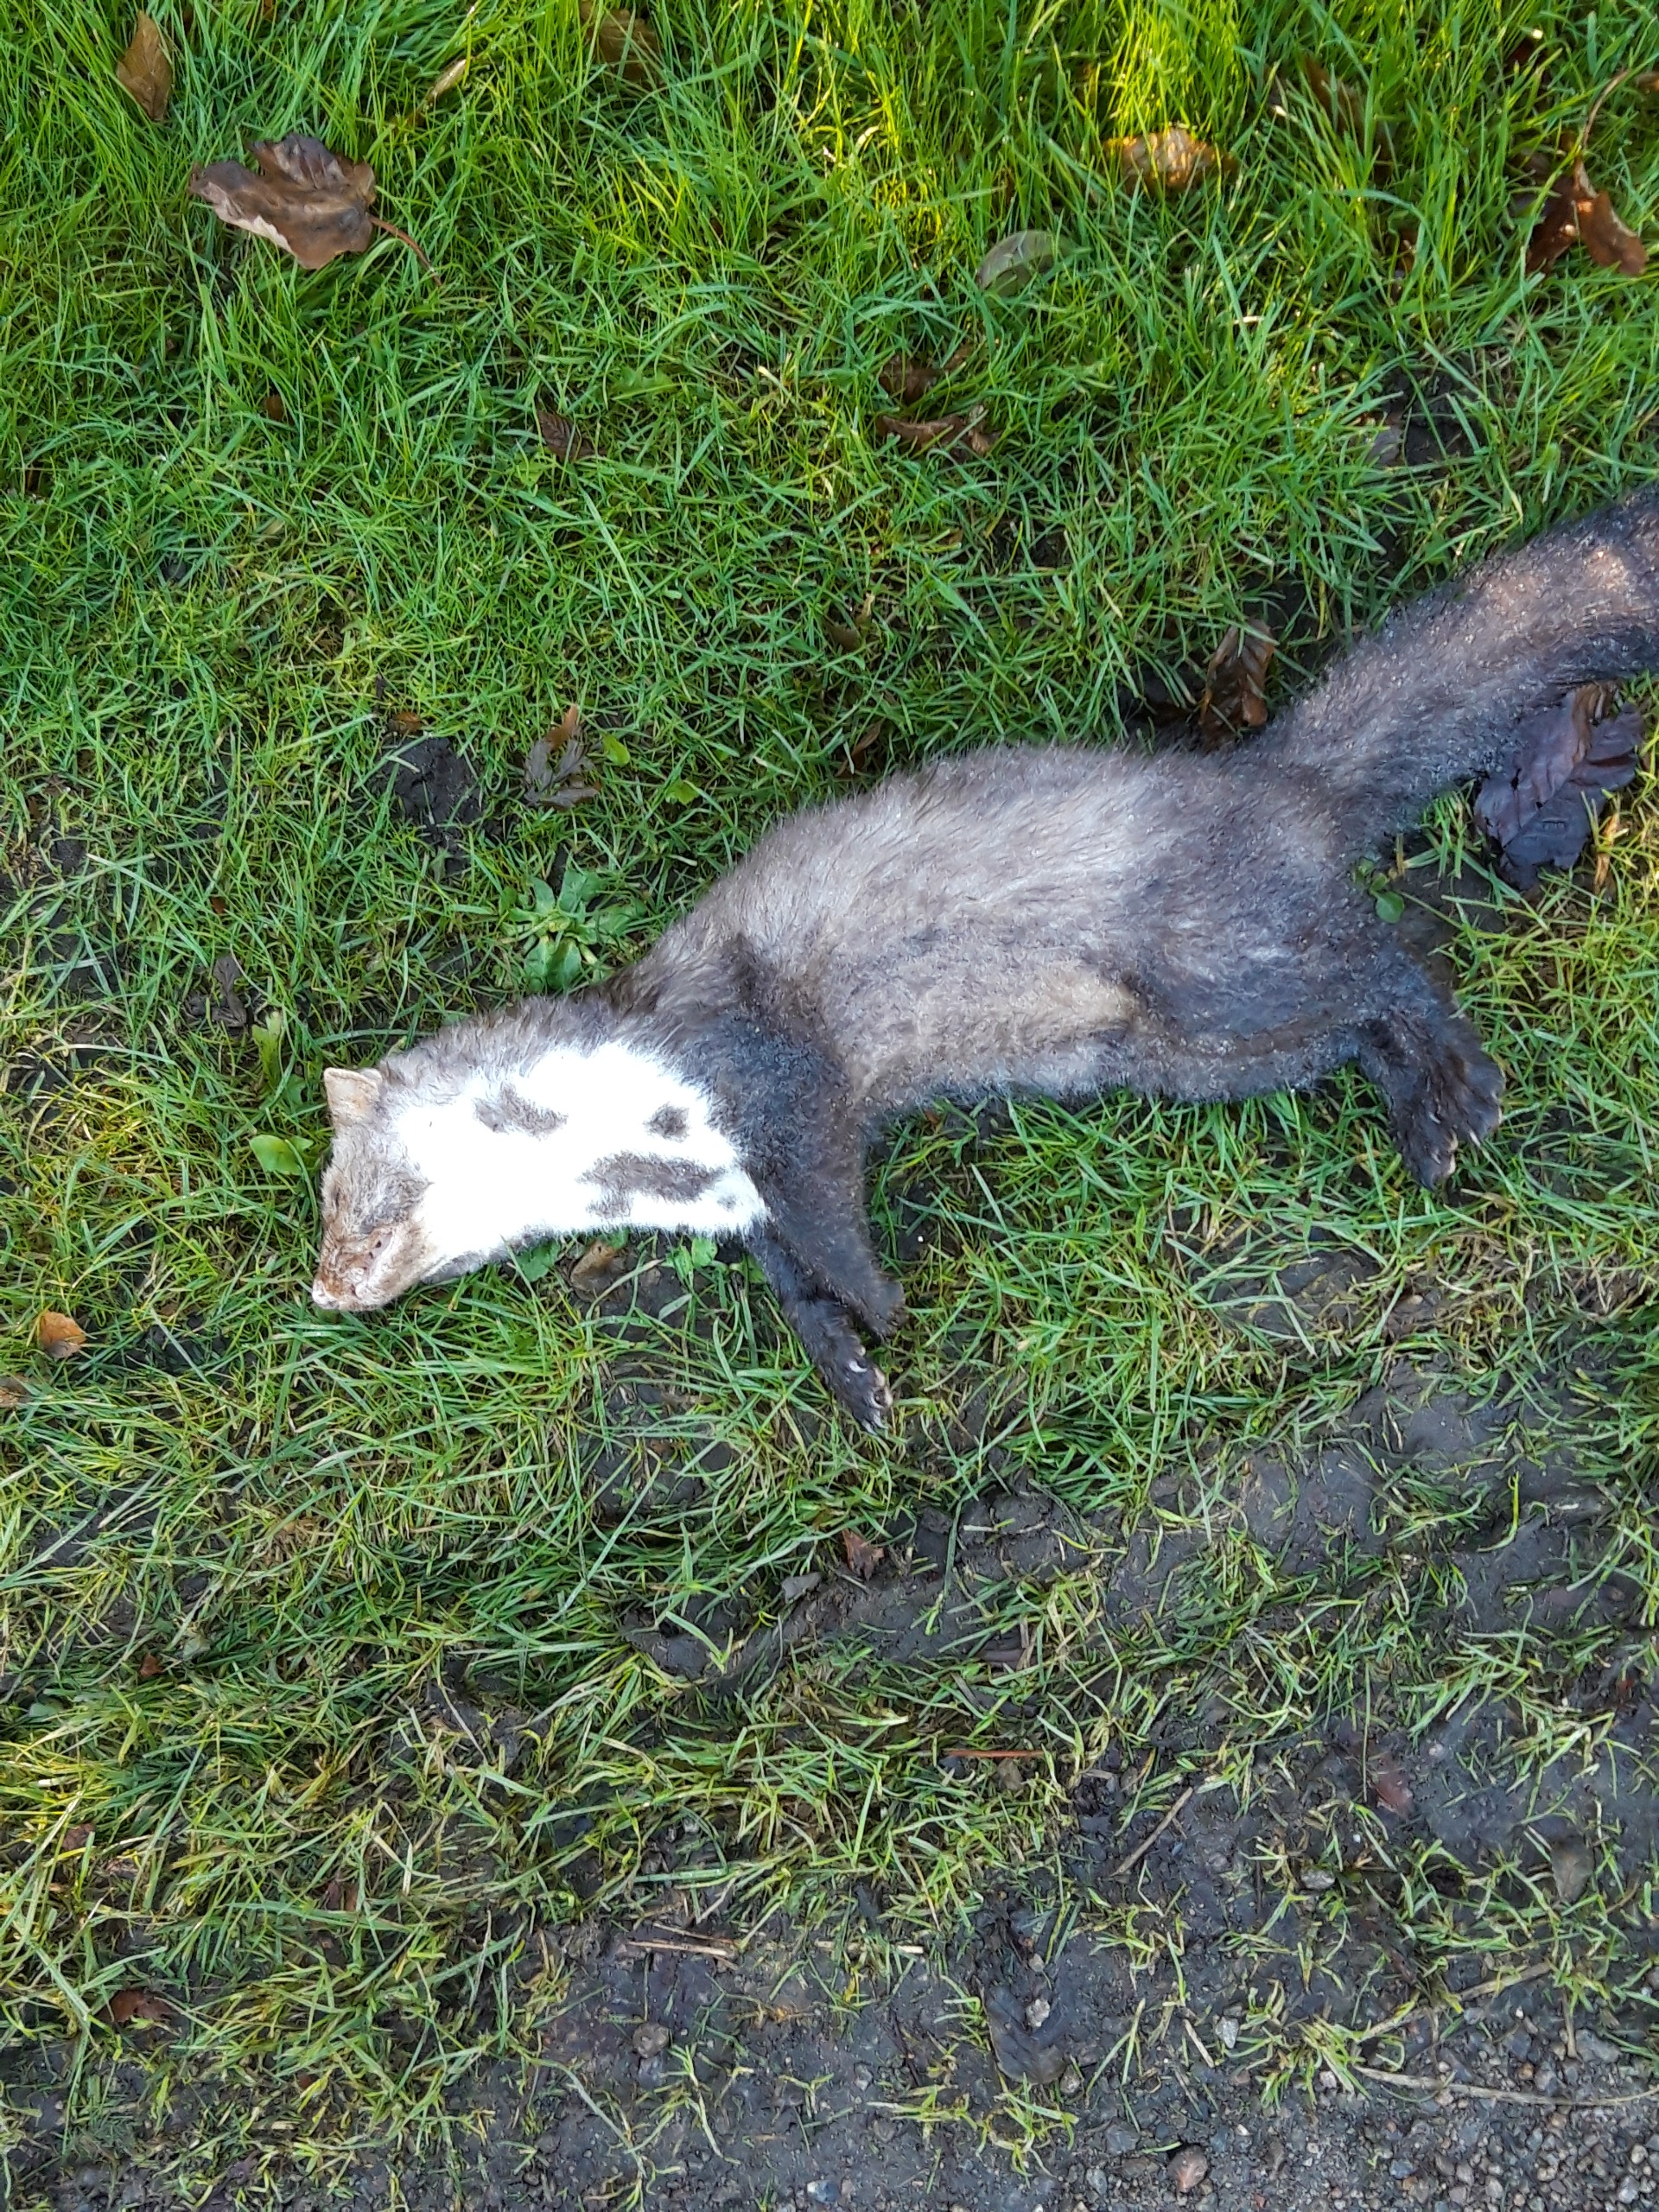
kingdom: Animalia
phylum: Chordata
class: Mammalia
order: Carnivora
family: Mustelidae
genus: Martes
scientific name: Martes foina
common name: Husmår
